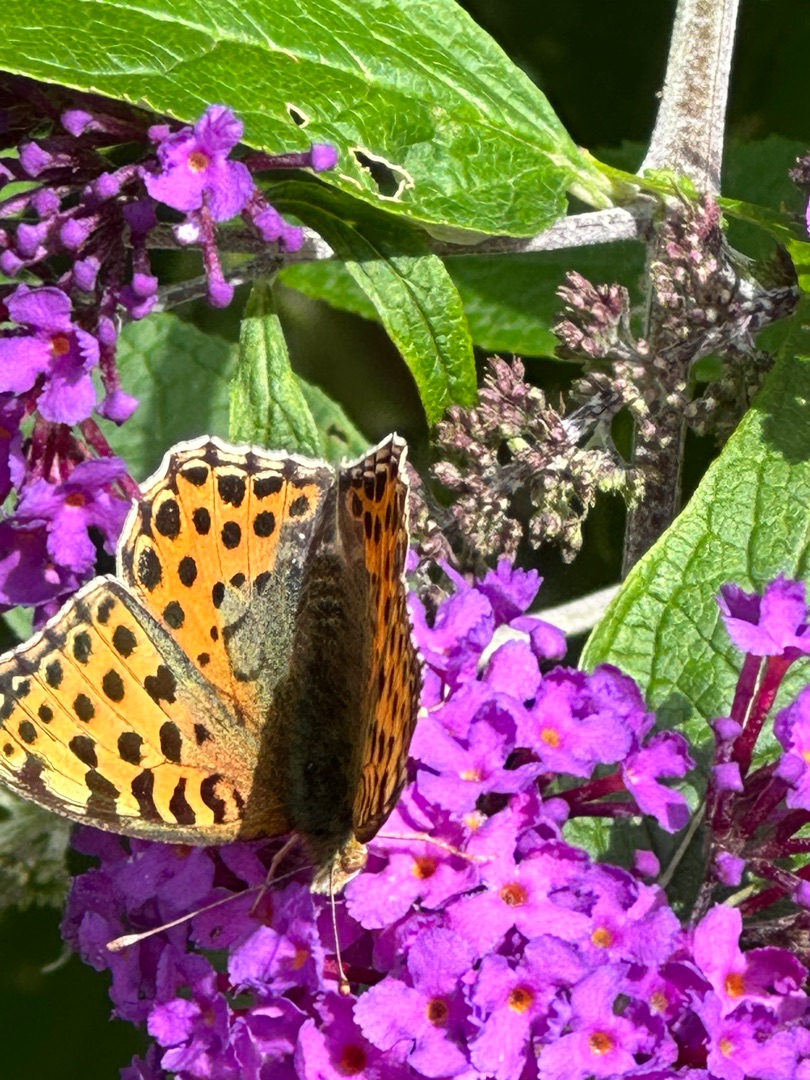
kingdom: Animalia
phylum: Arthropoda
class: Insecta
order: Lepidoptera
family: Nymphalidae
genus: Issoria
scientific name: Issoria lathonia
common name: Storplettet perlemorsommerfugl
